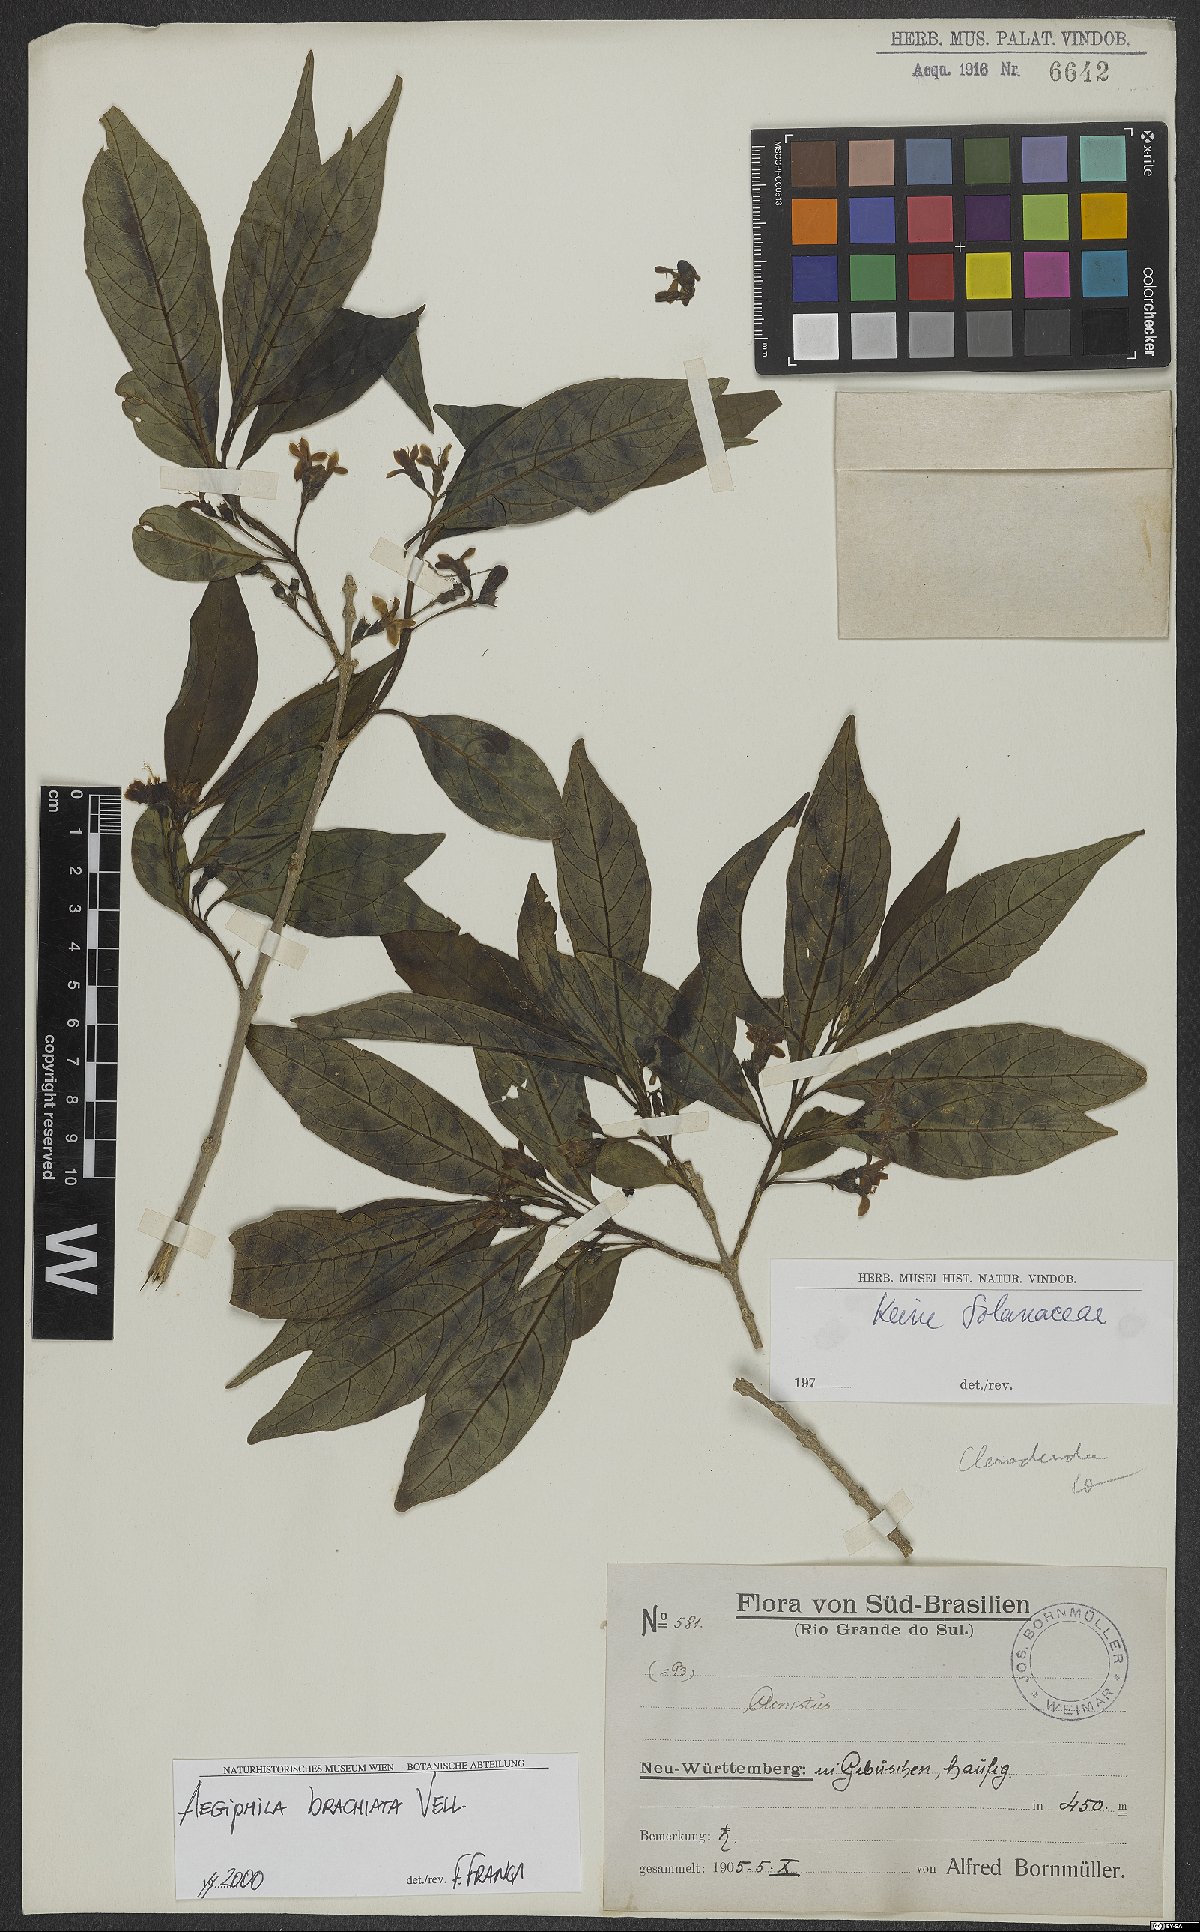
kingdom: Plantae
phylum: Tracheophyta
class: Magnoliopsida
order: Lamiales
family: Lamiaceae
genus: Aegiphila
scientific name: Aegiphila brachiata
